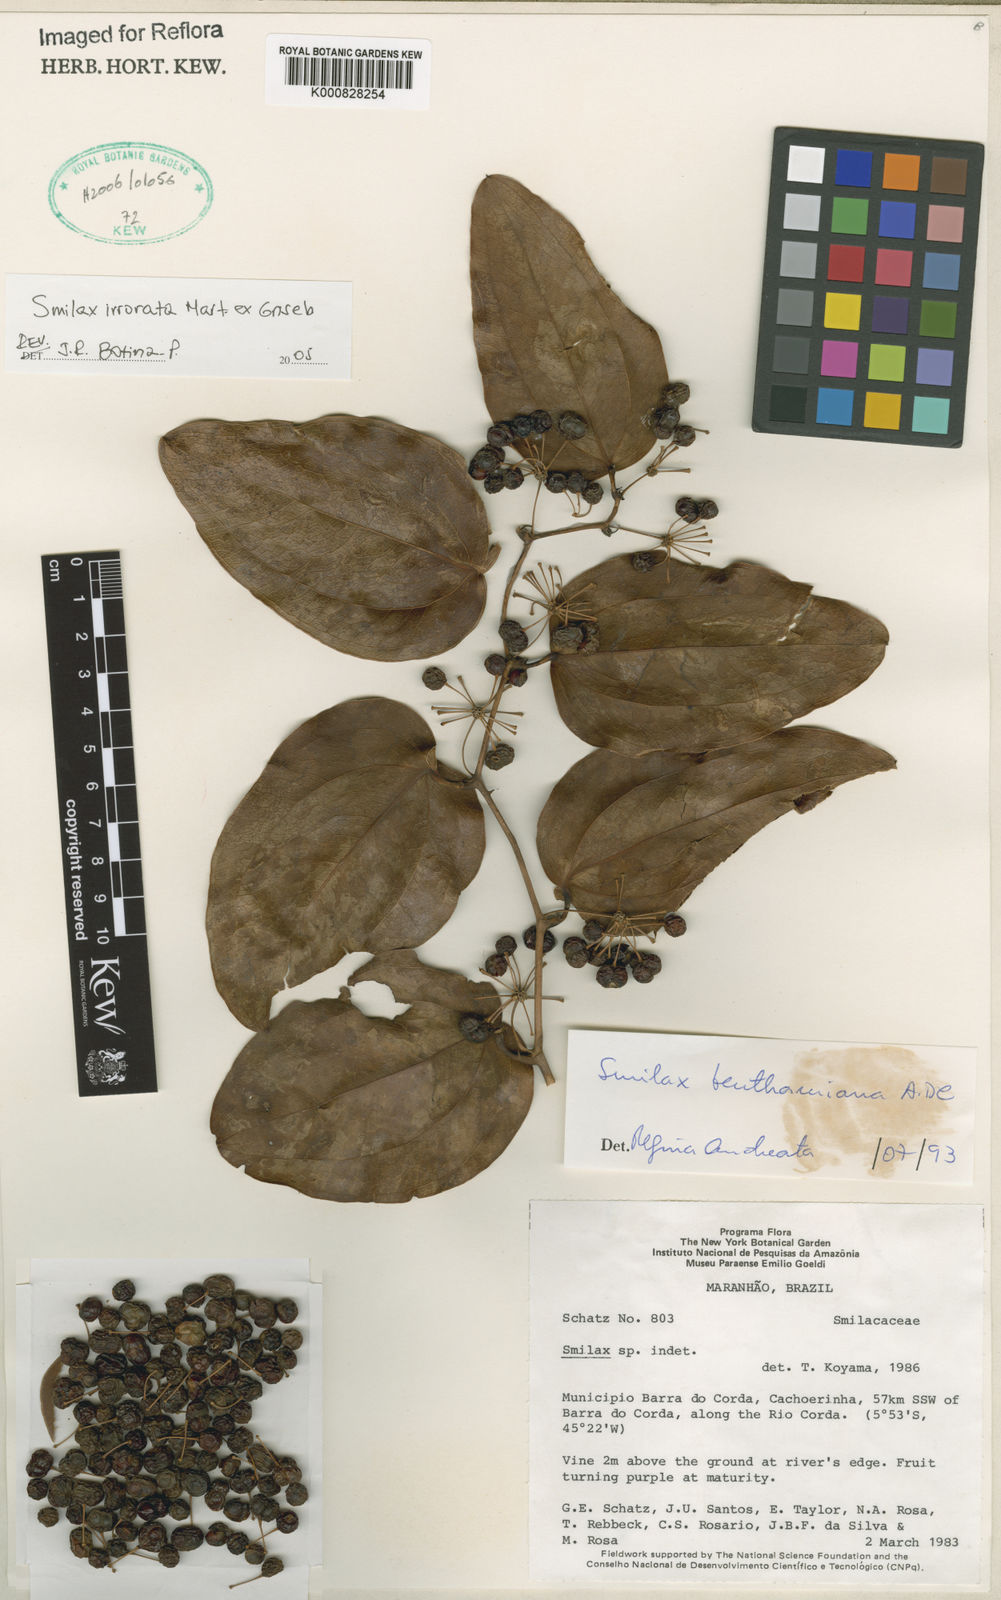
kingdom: Plantae
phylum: Tracheophyta
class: Liliopsida
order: Liliales
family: Smilacaceae
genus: Smilax
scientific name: Smilax irrorata
